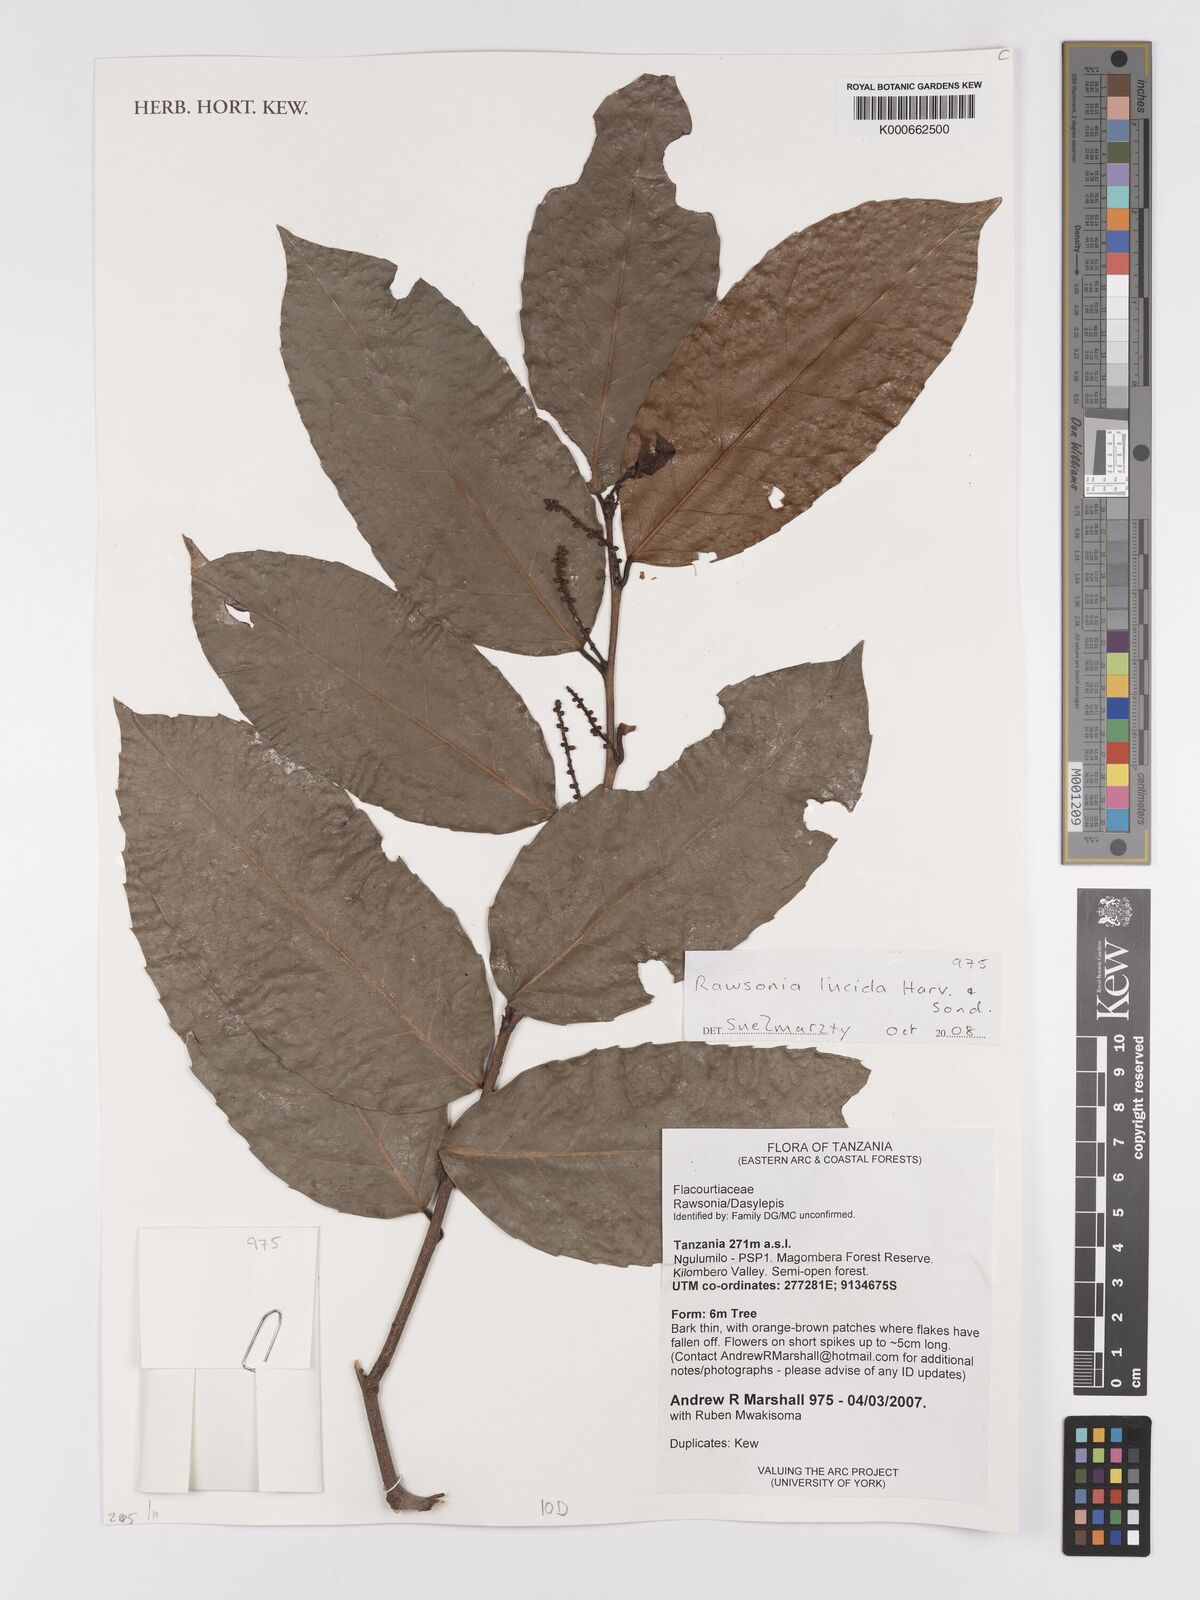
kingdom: Plantae
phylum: Tracheophyta
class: Magnoliopsida
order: Malpighiales
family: Achariaceae
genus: Rawsonia
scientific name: Rawsonia lucida
